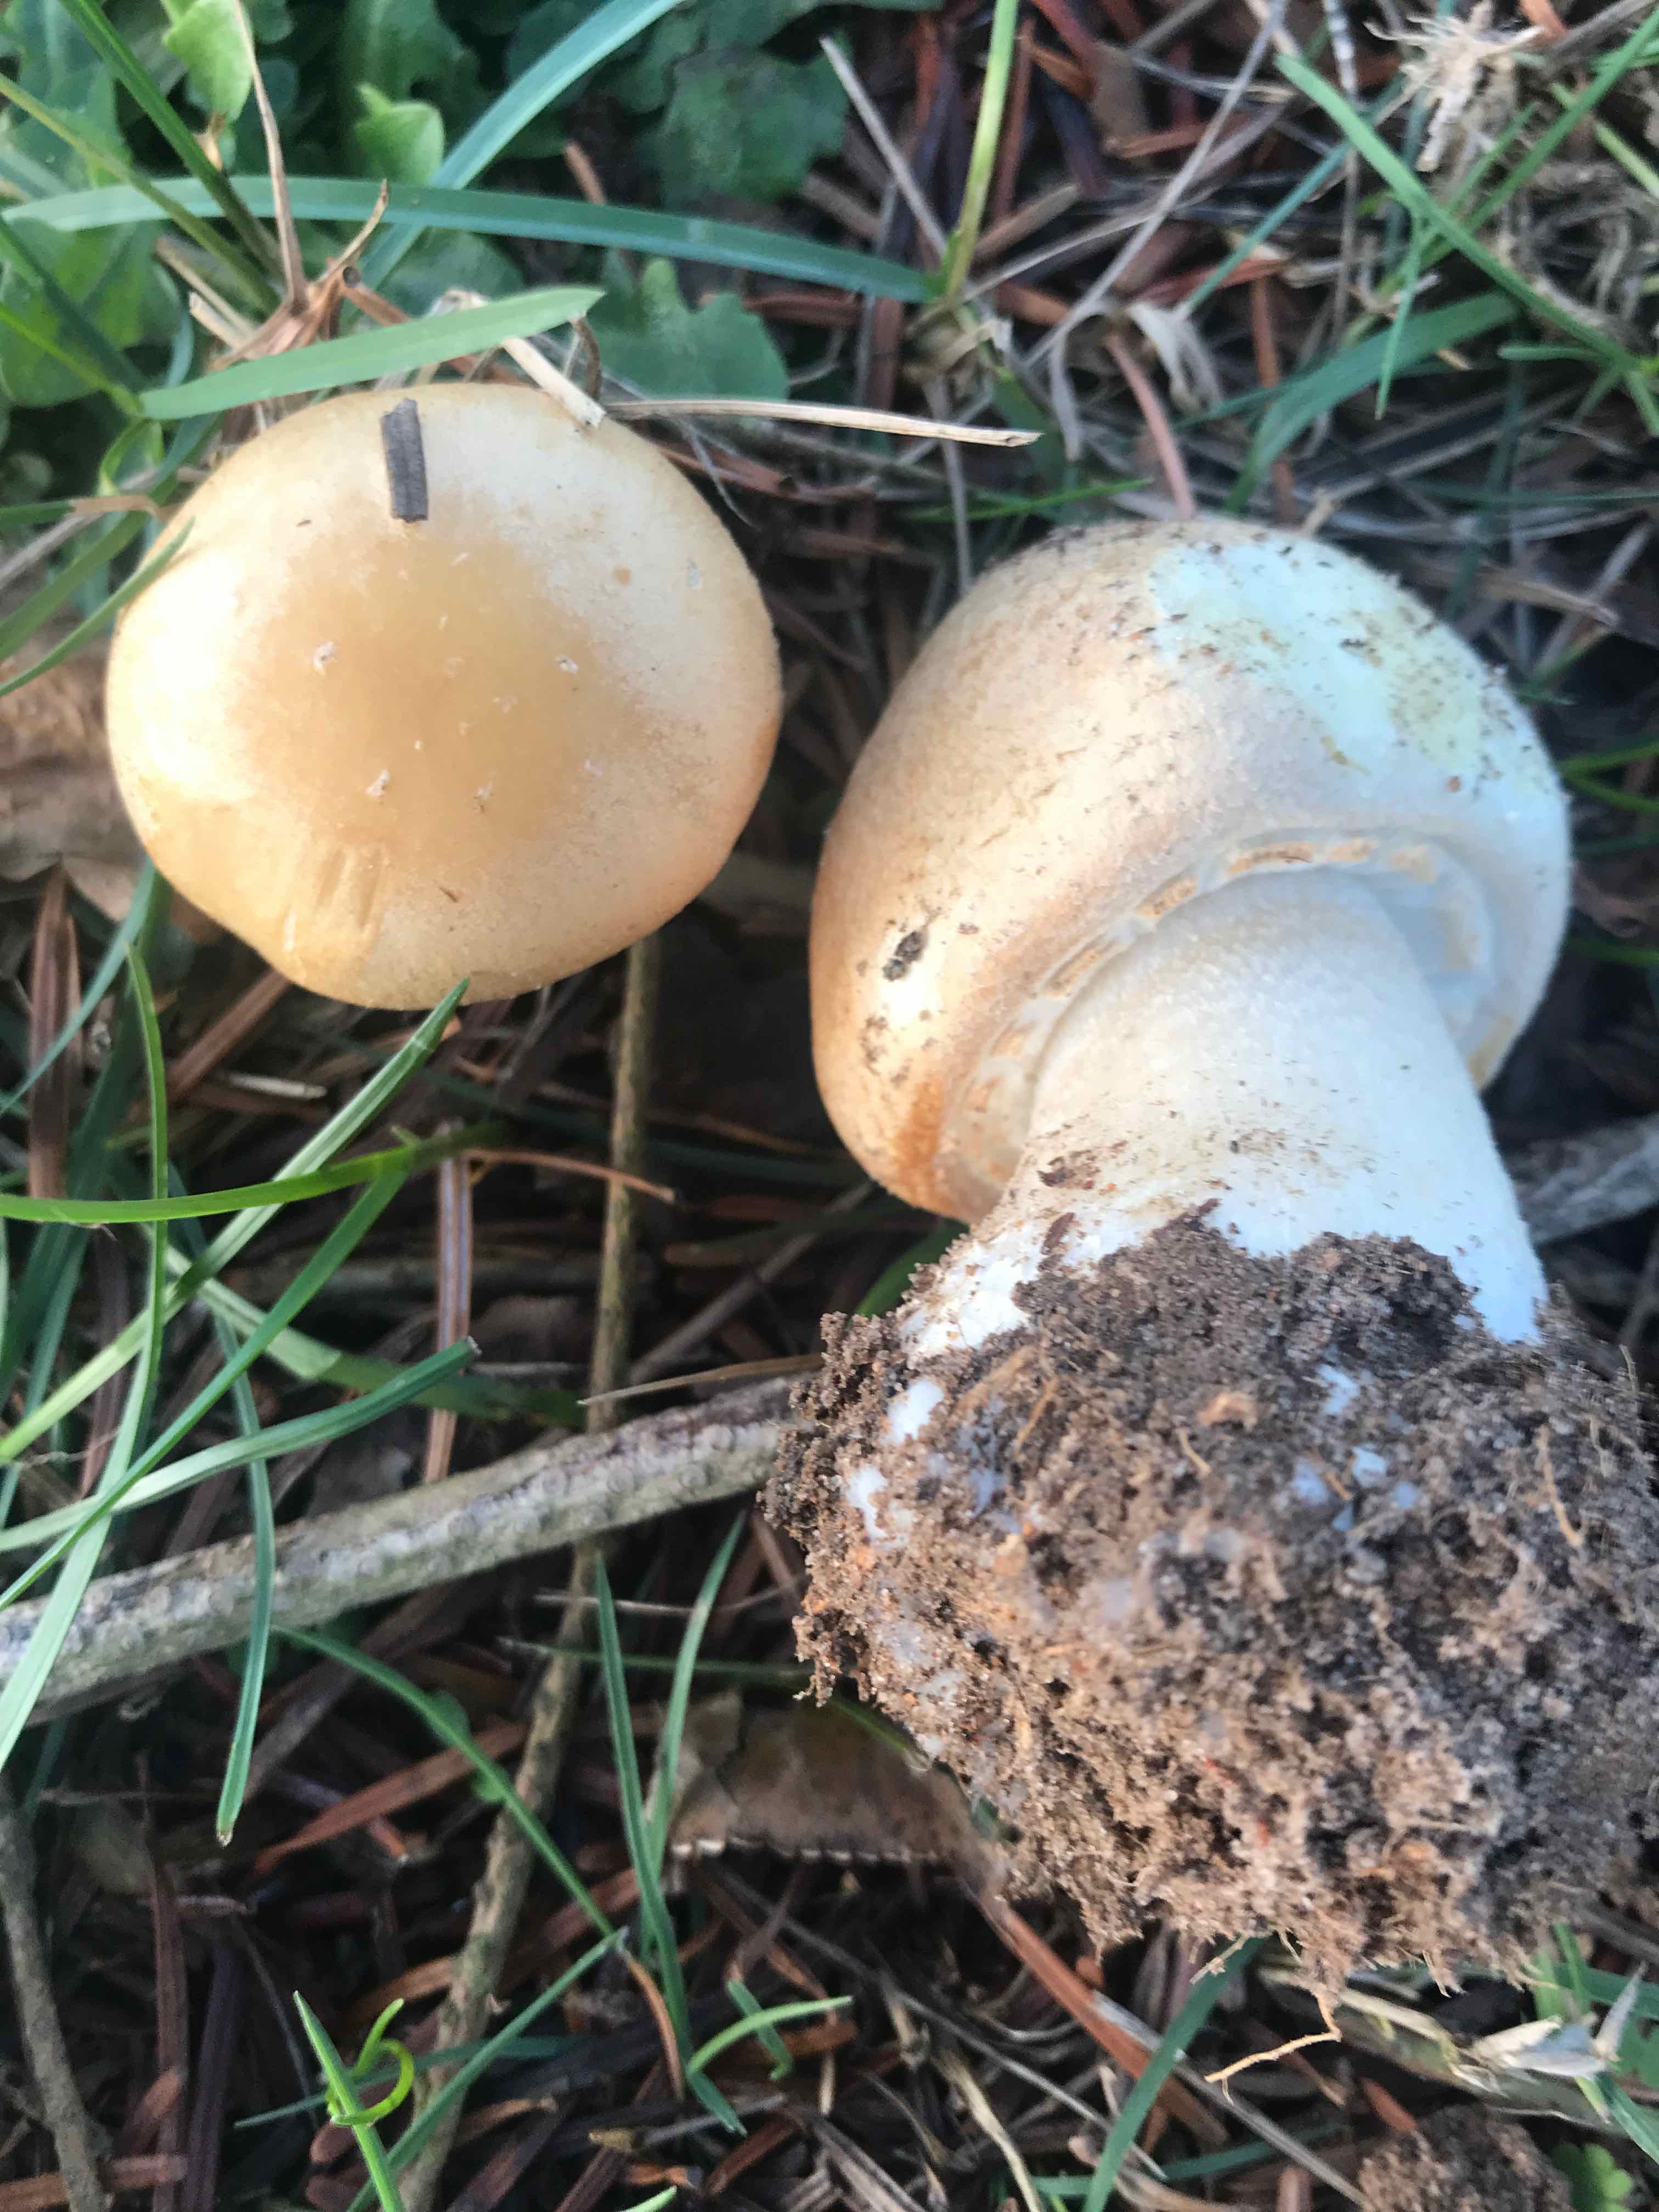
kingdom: Fungi
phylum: Basidiomycota
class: Agaricomycetes
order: Agaricales
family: Agaricaceae
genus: Agaricus
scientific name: Agaricus
